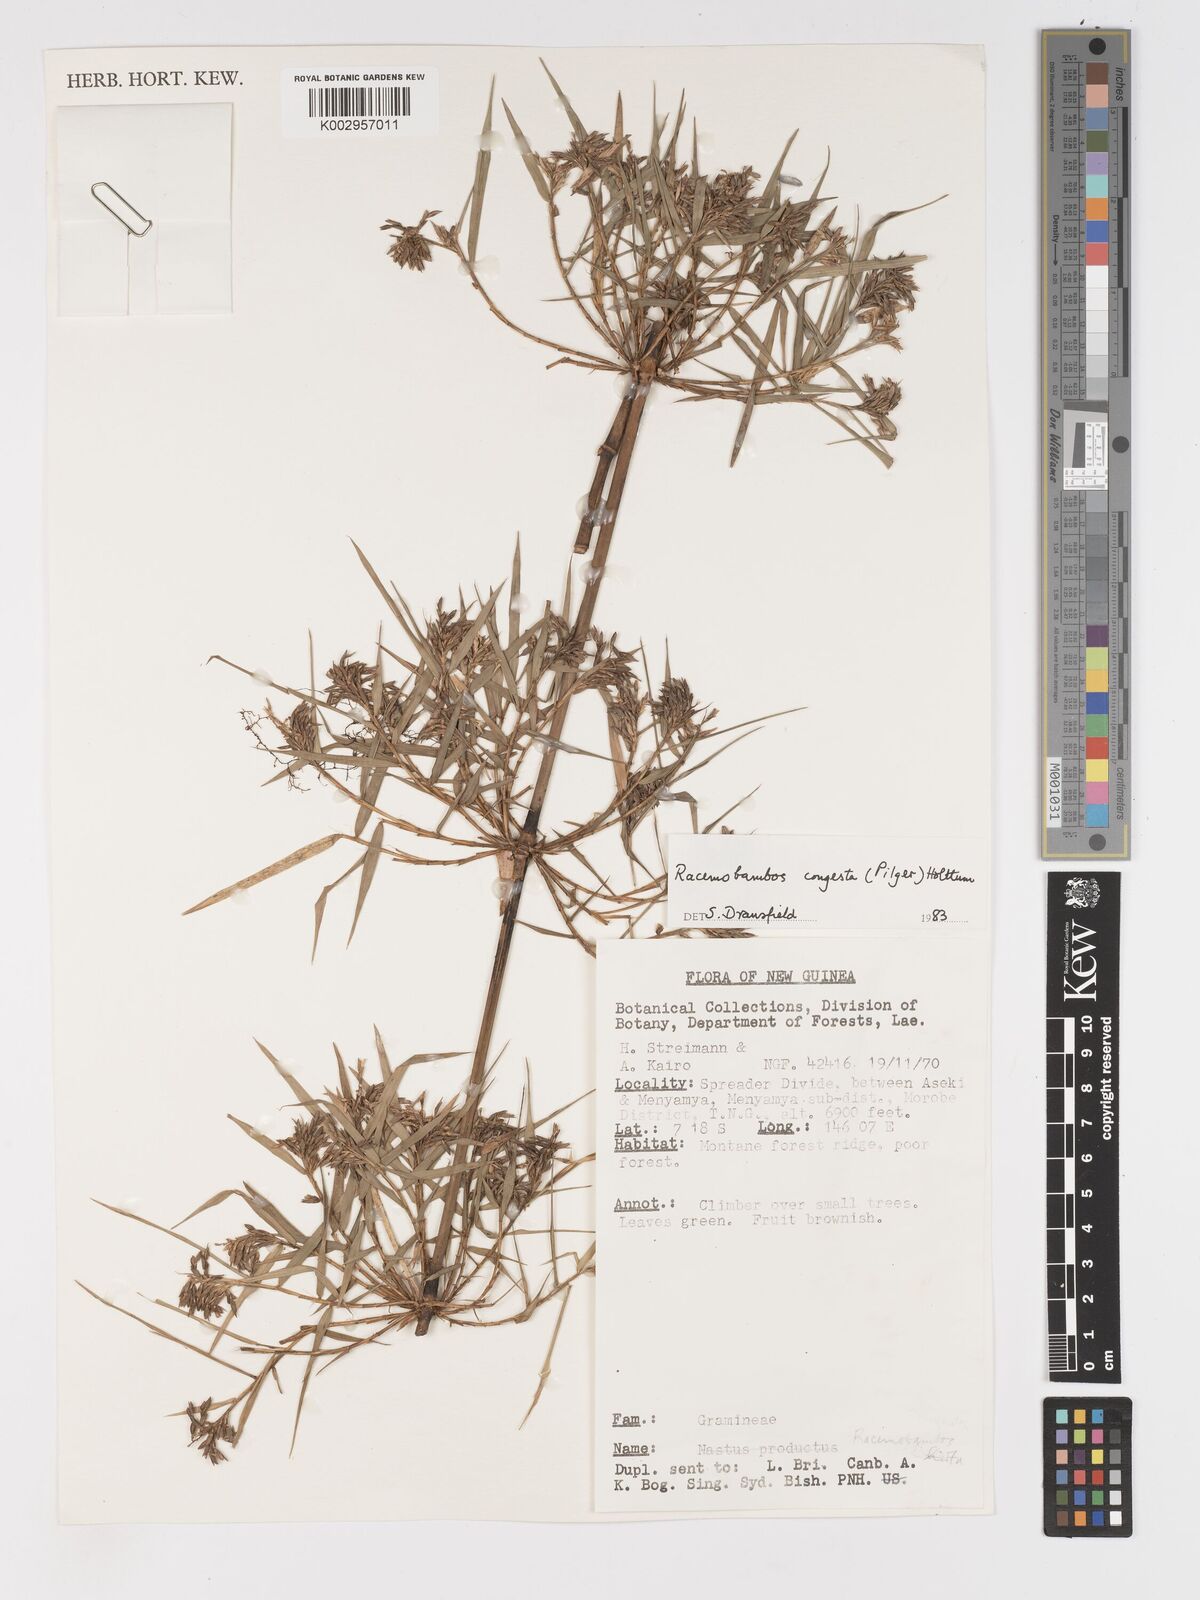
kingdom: Plantae
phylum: Tracheophyta
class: Liliopsida
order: Poales
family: Poaceae
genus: Racemobambos
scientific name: Racemobambos congesta
